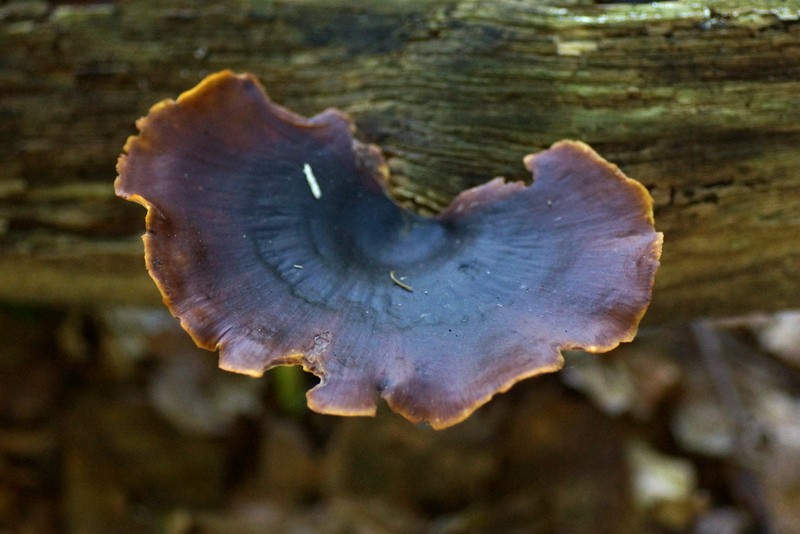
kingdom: Fungi
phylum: Basidiomycota
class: Agaricomycetes
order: Polyporales
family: Polyporaceae
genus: Picipes
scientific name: Picipes badius
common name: kastaniebrun stilkporesvamp
